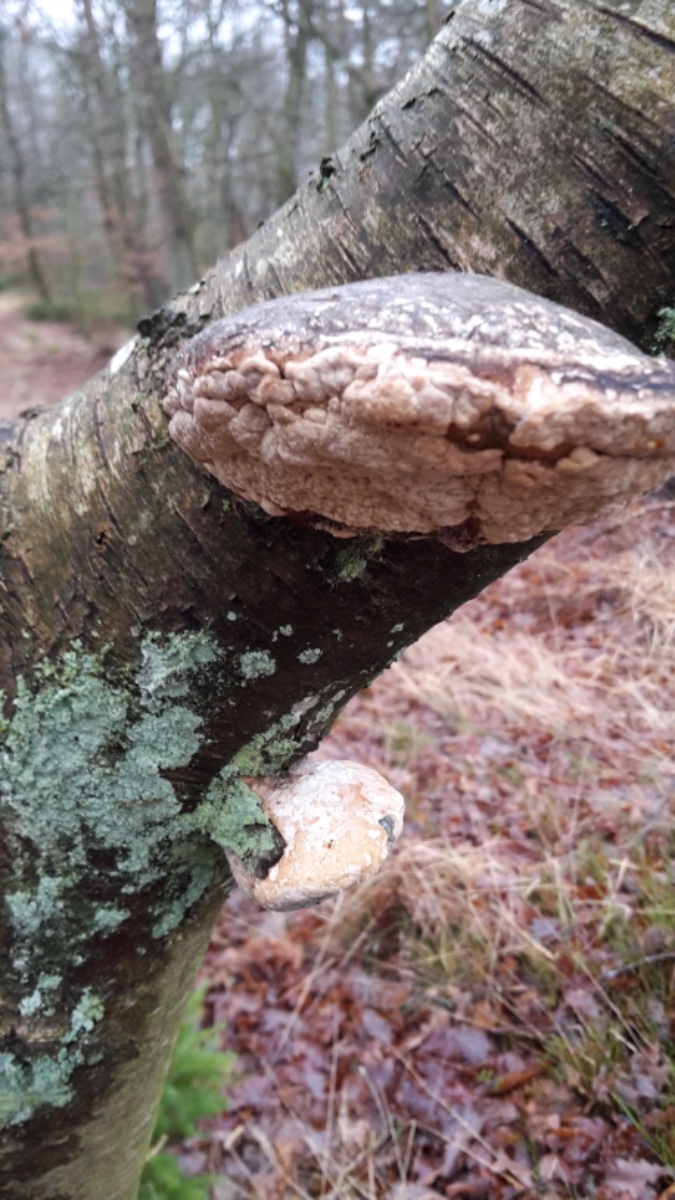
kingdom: Fungi
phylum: Ascomycota
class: Sordariomycetes
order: Hypocreales
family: Hypocreaceae
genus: Trichoderma
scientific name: Trichoderma pulvinatum
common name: snyltende kødkerne
